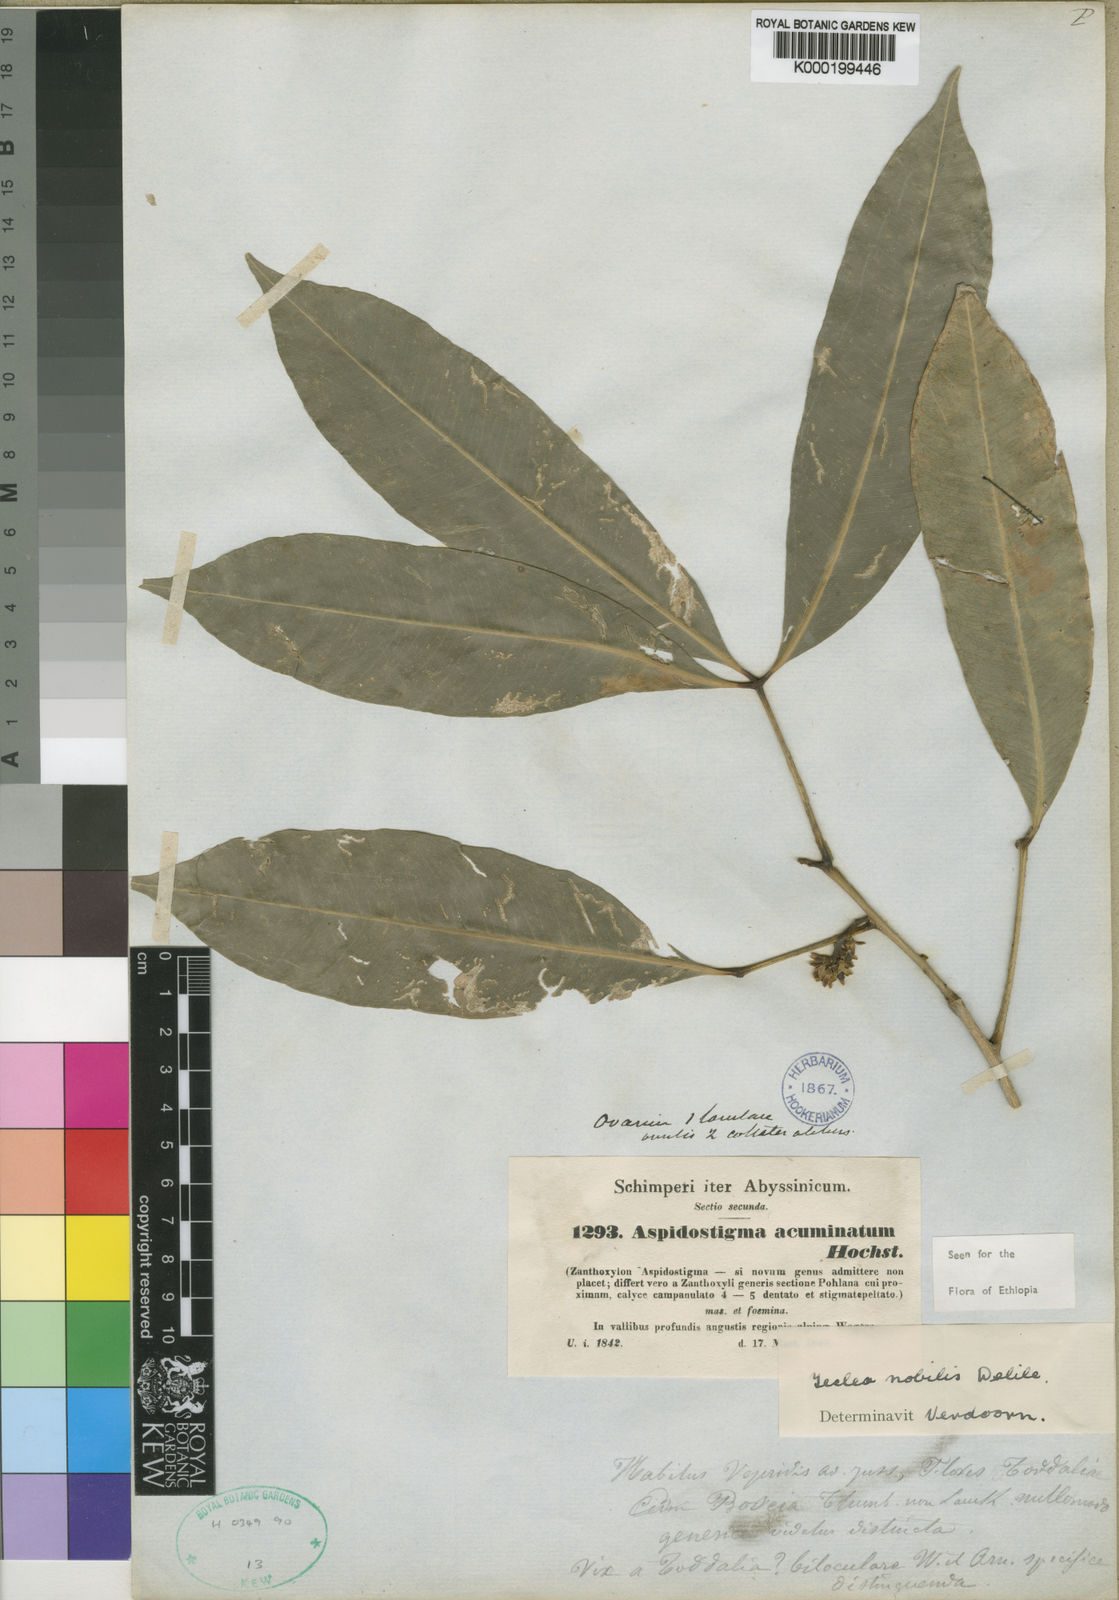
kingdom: Plantae
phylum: Tracheophyta
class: Magnoliopsida
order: Sapindales
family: Rutaceae
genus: Vepris
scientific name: Vepris nobilis
